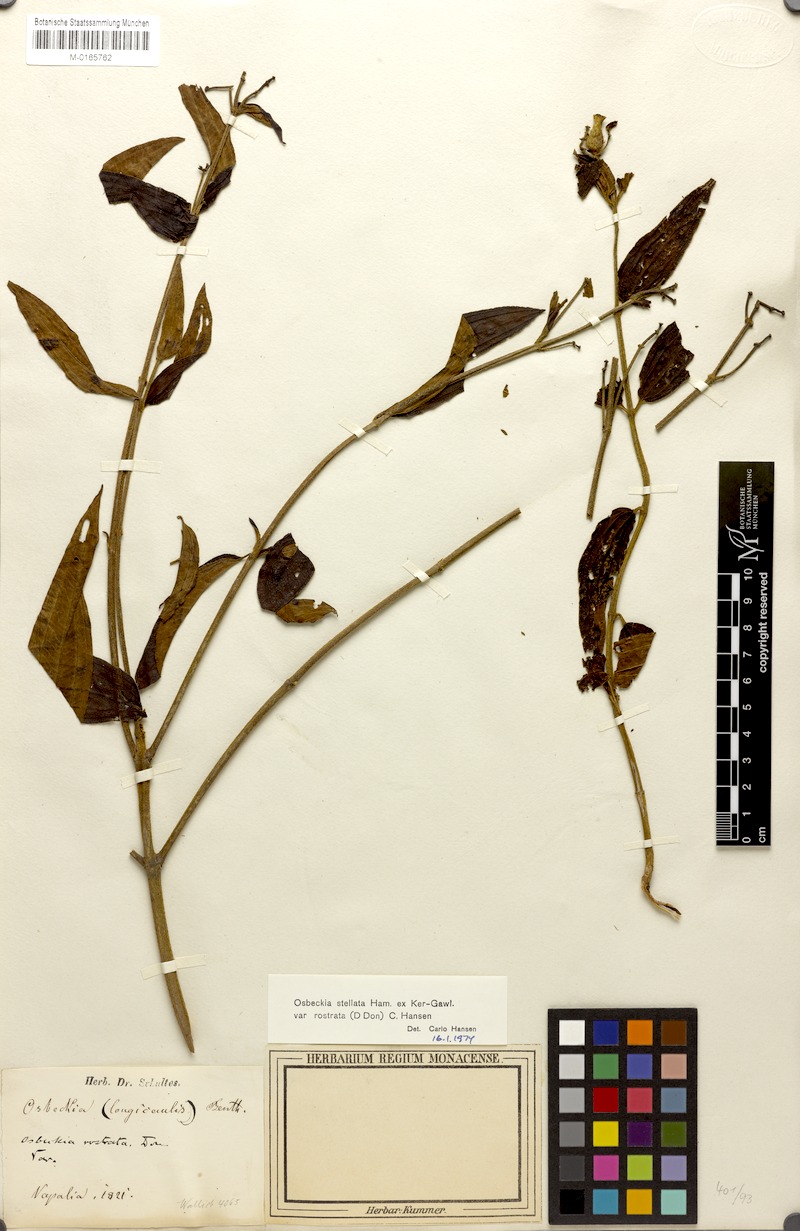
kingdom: Plantae
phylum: Tracheophyta
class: Magnoliopsida
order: Myrtales
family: Melastomataceae
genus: Osbeckia
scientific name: Osbeckia rostrata
